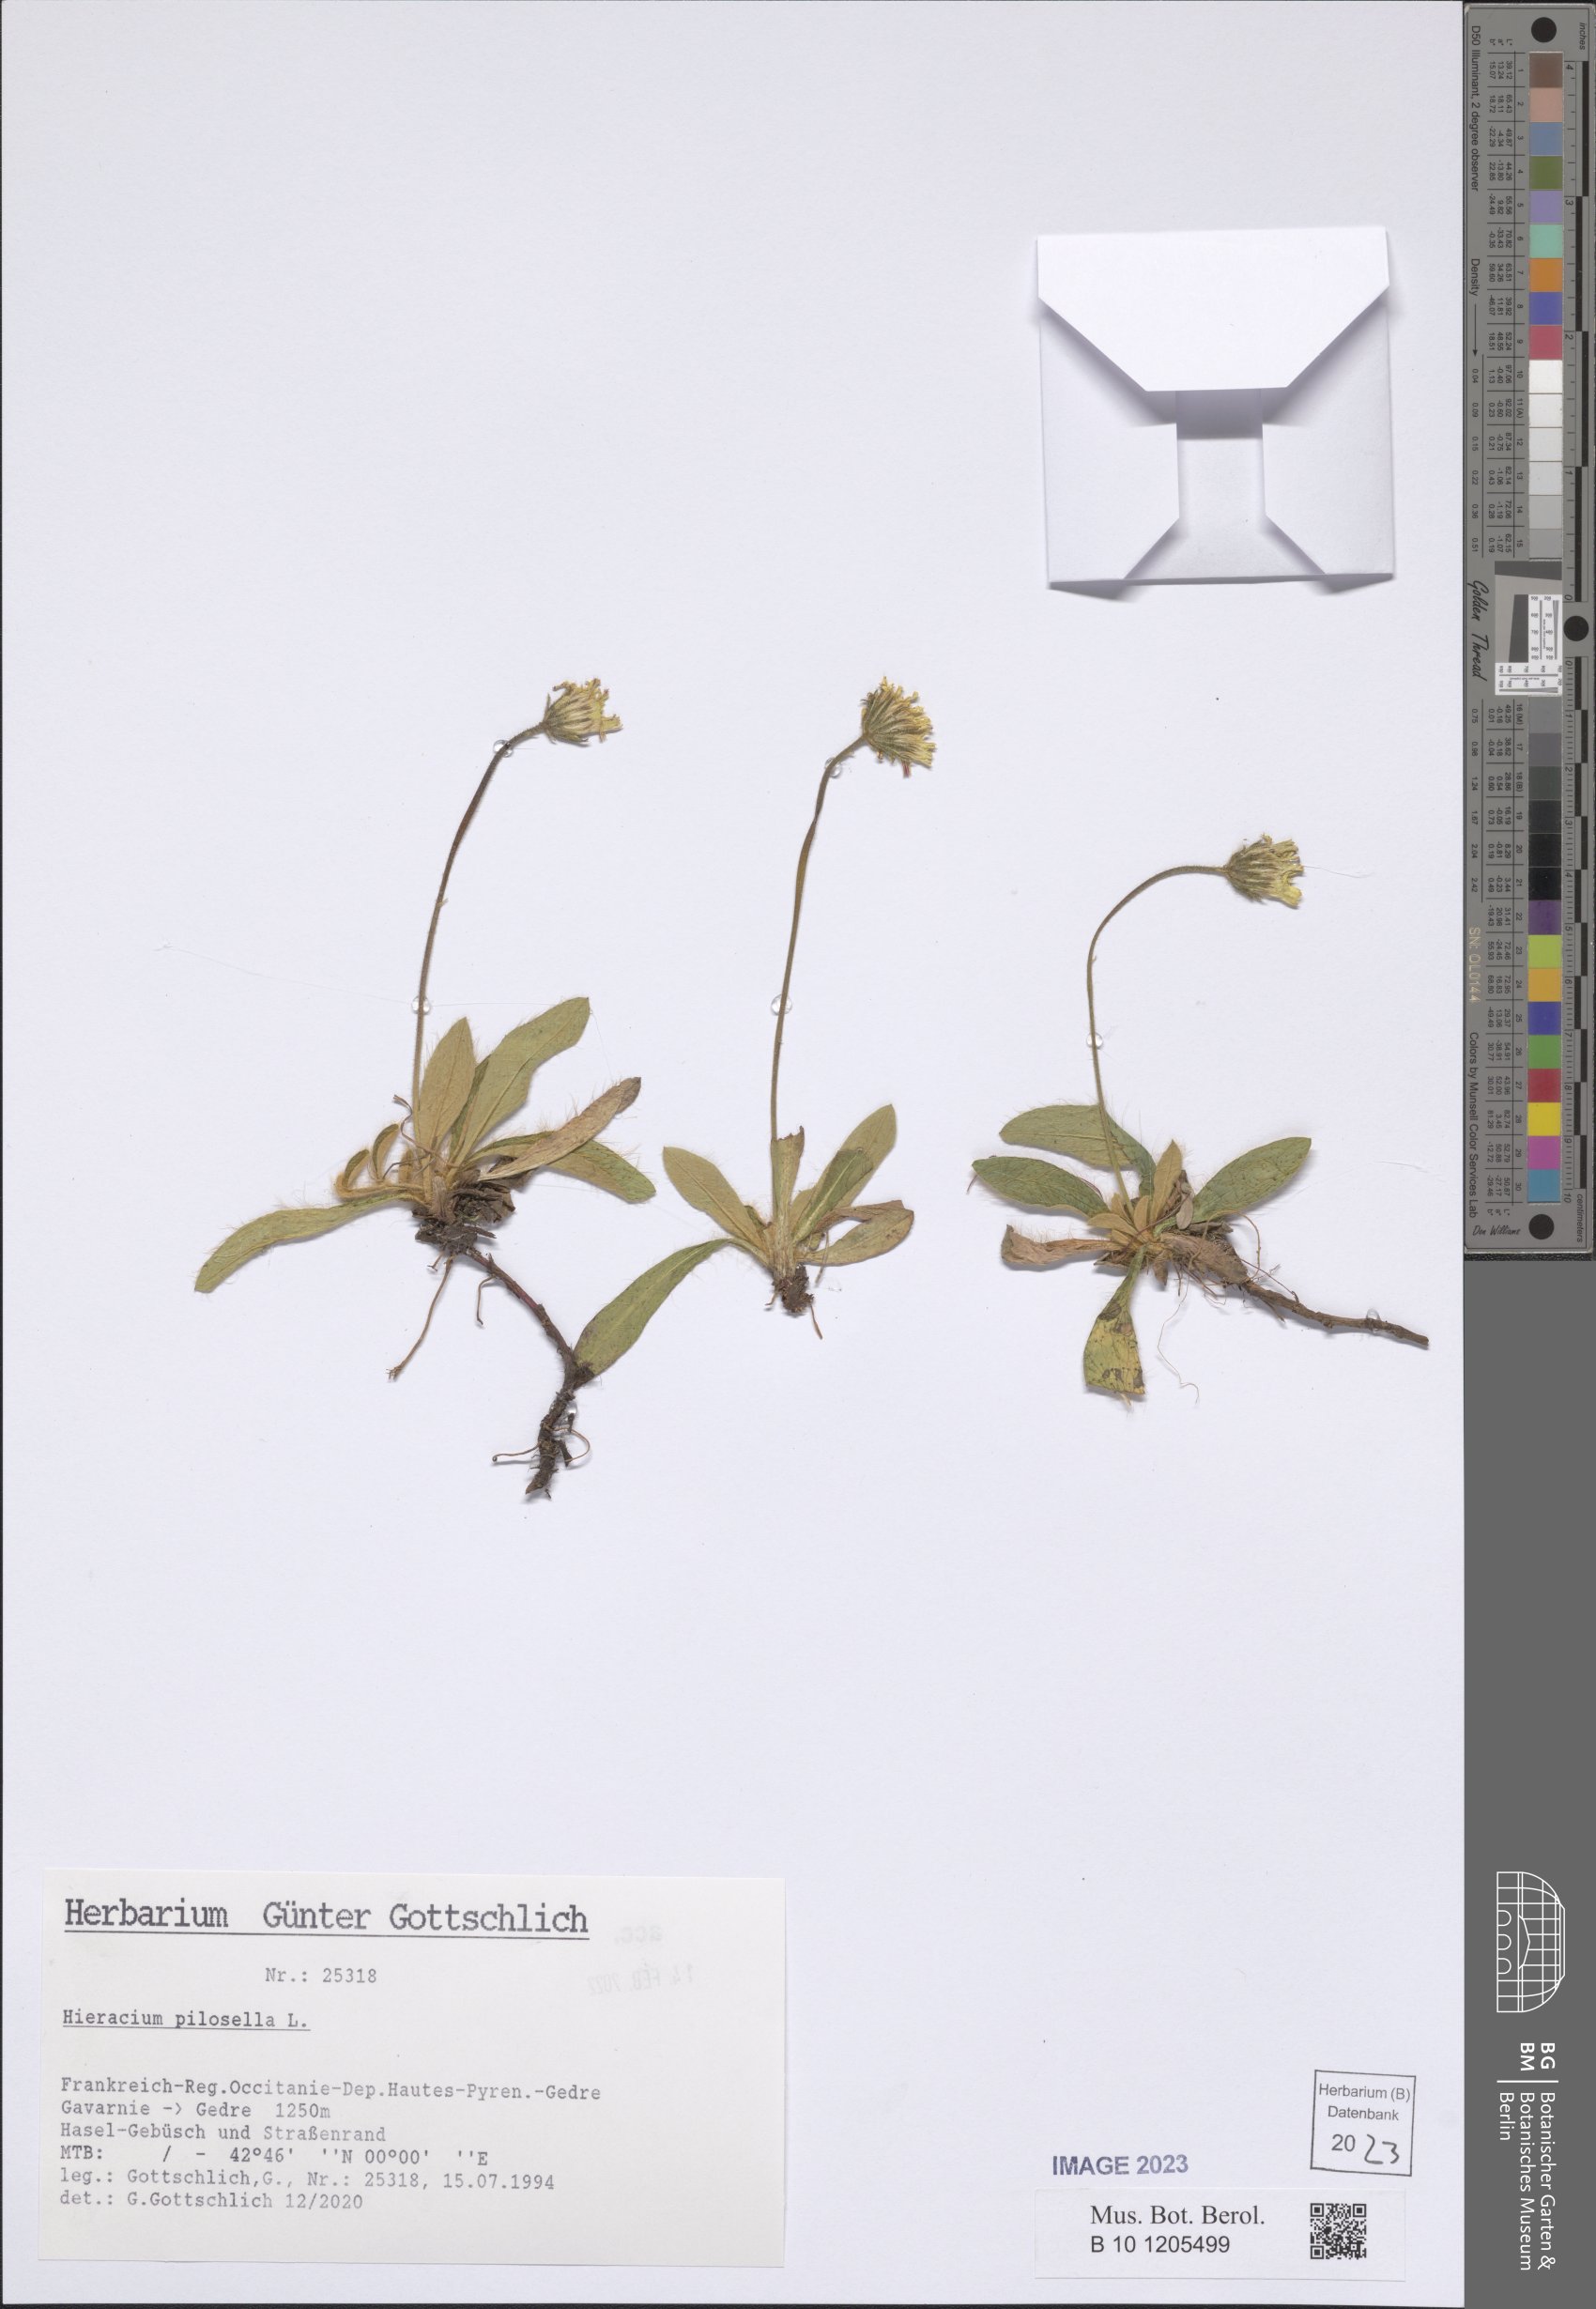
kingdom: Plantae
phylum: Tracheophyta
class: Magnoliopsida
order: Asterales
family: Asteraceae
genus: Pilosella
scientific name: Pilosella officinarum
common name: Mouse-ear hawkweed
